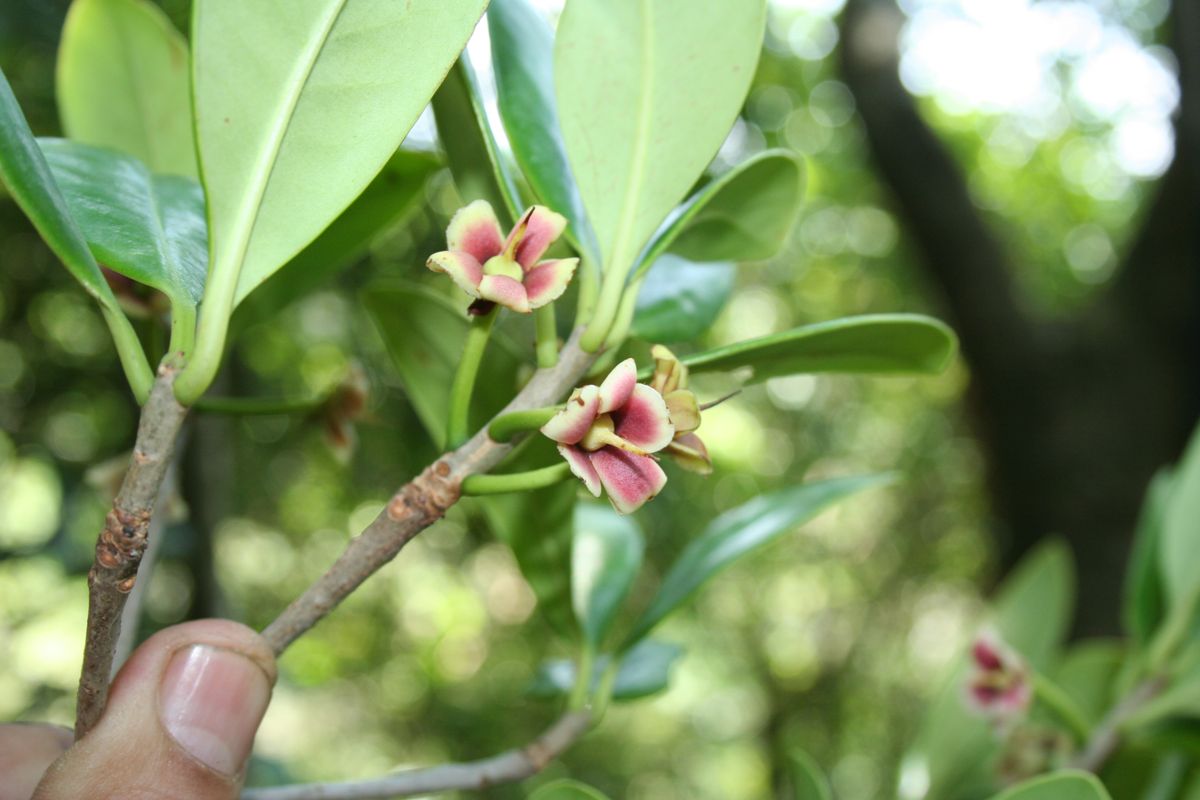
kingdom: Plantae
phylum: Tracheophyta
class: Magnoliopsida
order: Ericales
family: Pentaphylacaceae
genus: Ternstroemia
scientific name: Ternstroemia tepezapote
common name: Copey vera
